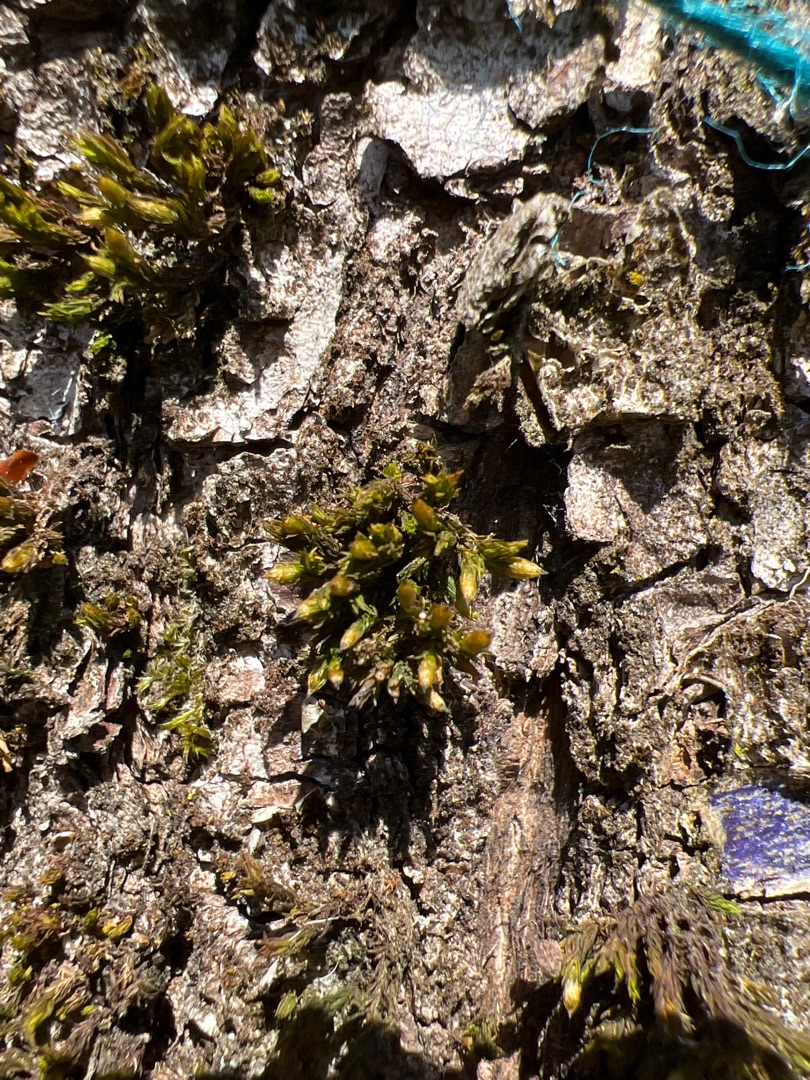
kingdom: Plantae
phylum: Bryophyta
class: Bryopsida
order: Orthotrichales
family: Orthotrichaceae
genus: Lewinskya
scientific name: Lewinskya affinis
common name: Almindelig furehætte
